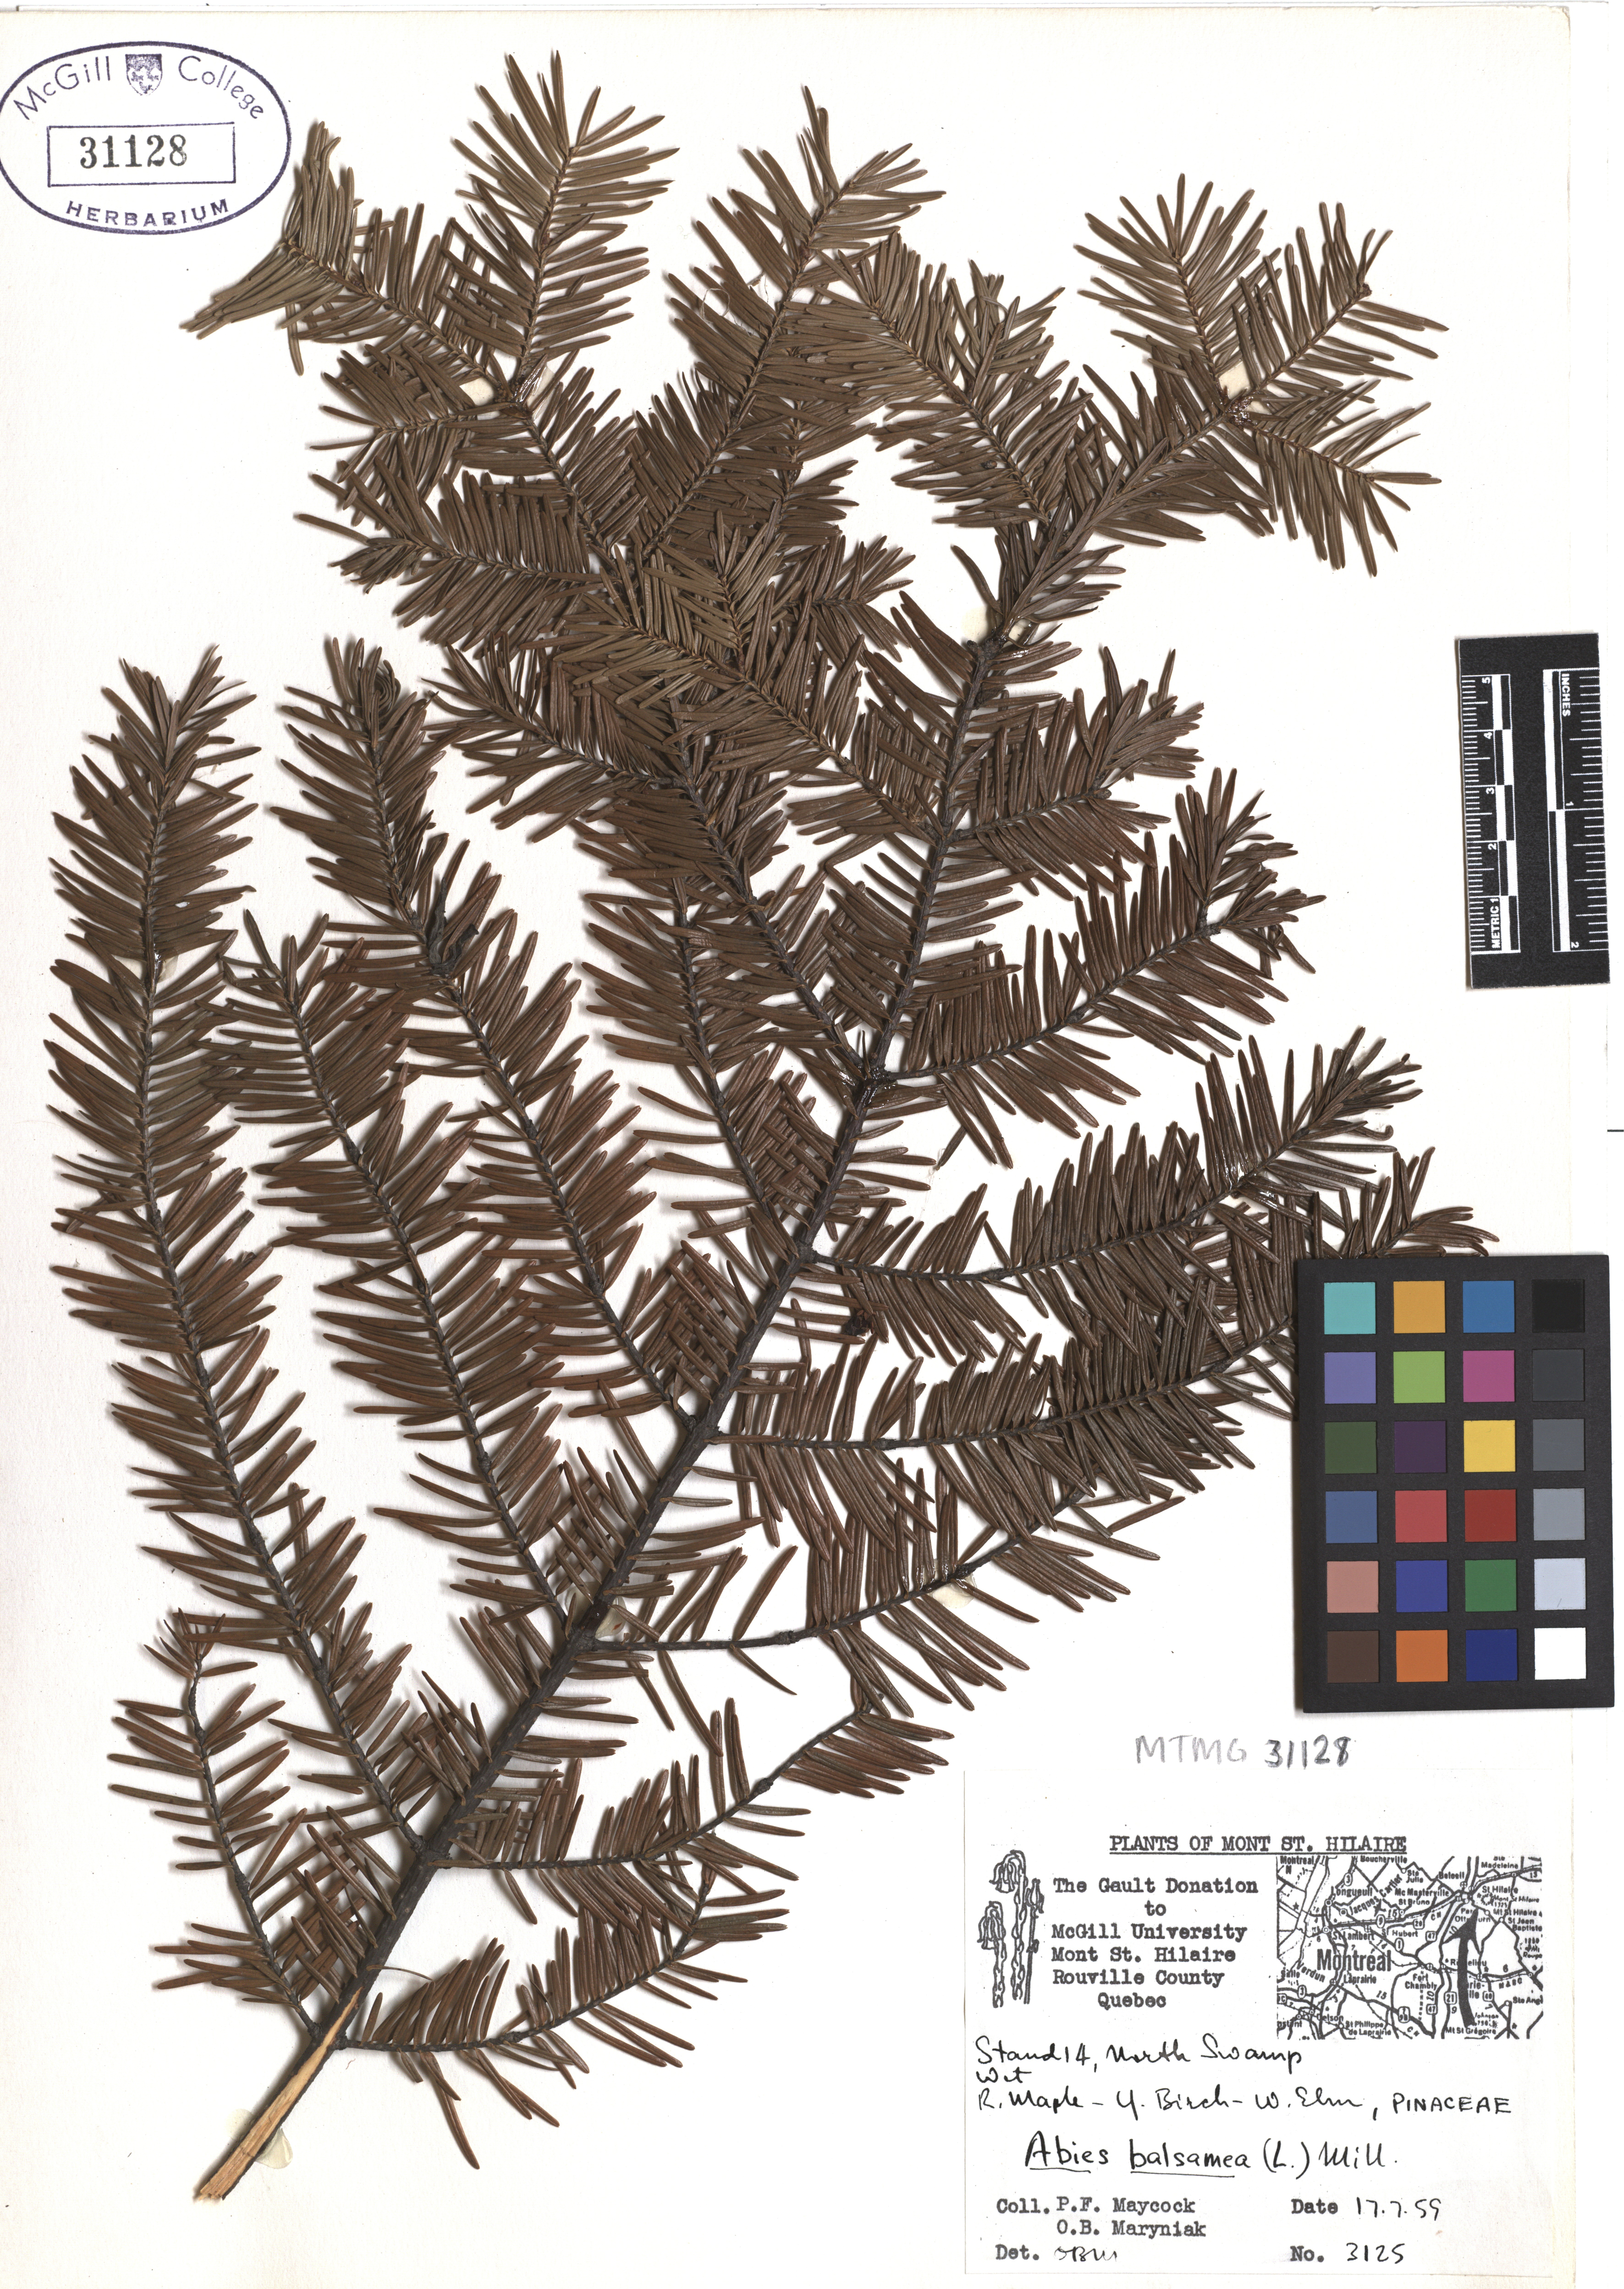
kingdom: Plantae
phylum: Tracheophyta
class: Pinopsida
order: Pinales
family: Pinaceae
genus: Abies
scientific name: Abies balsamea
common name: Balsam fir
